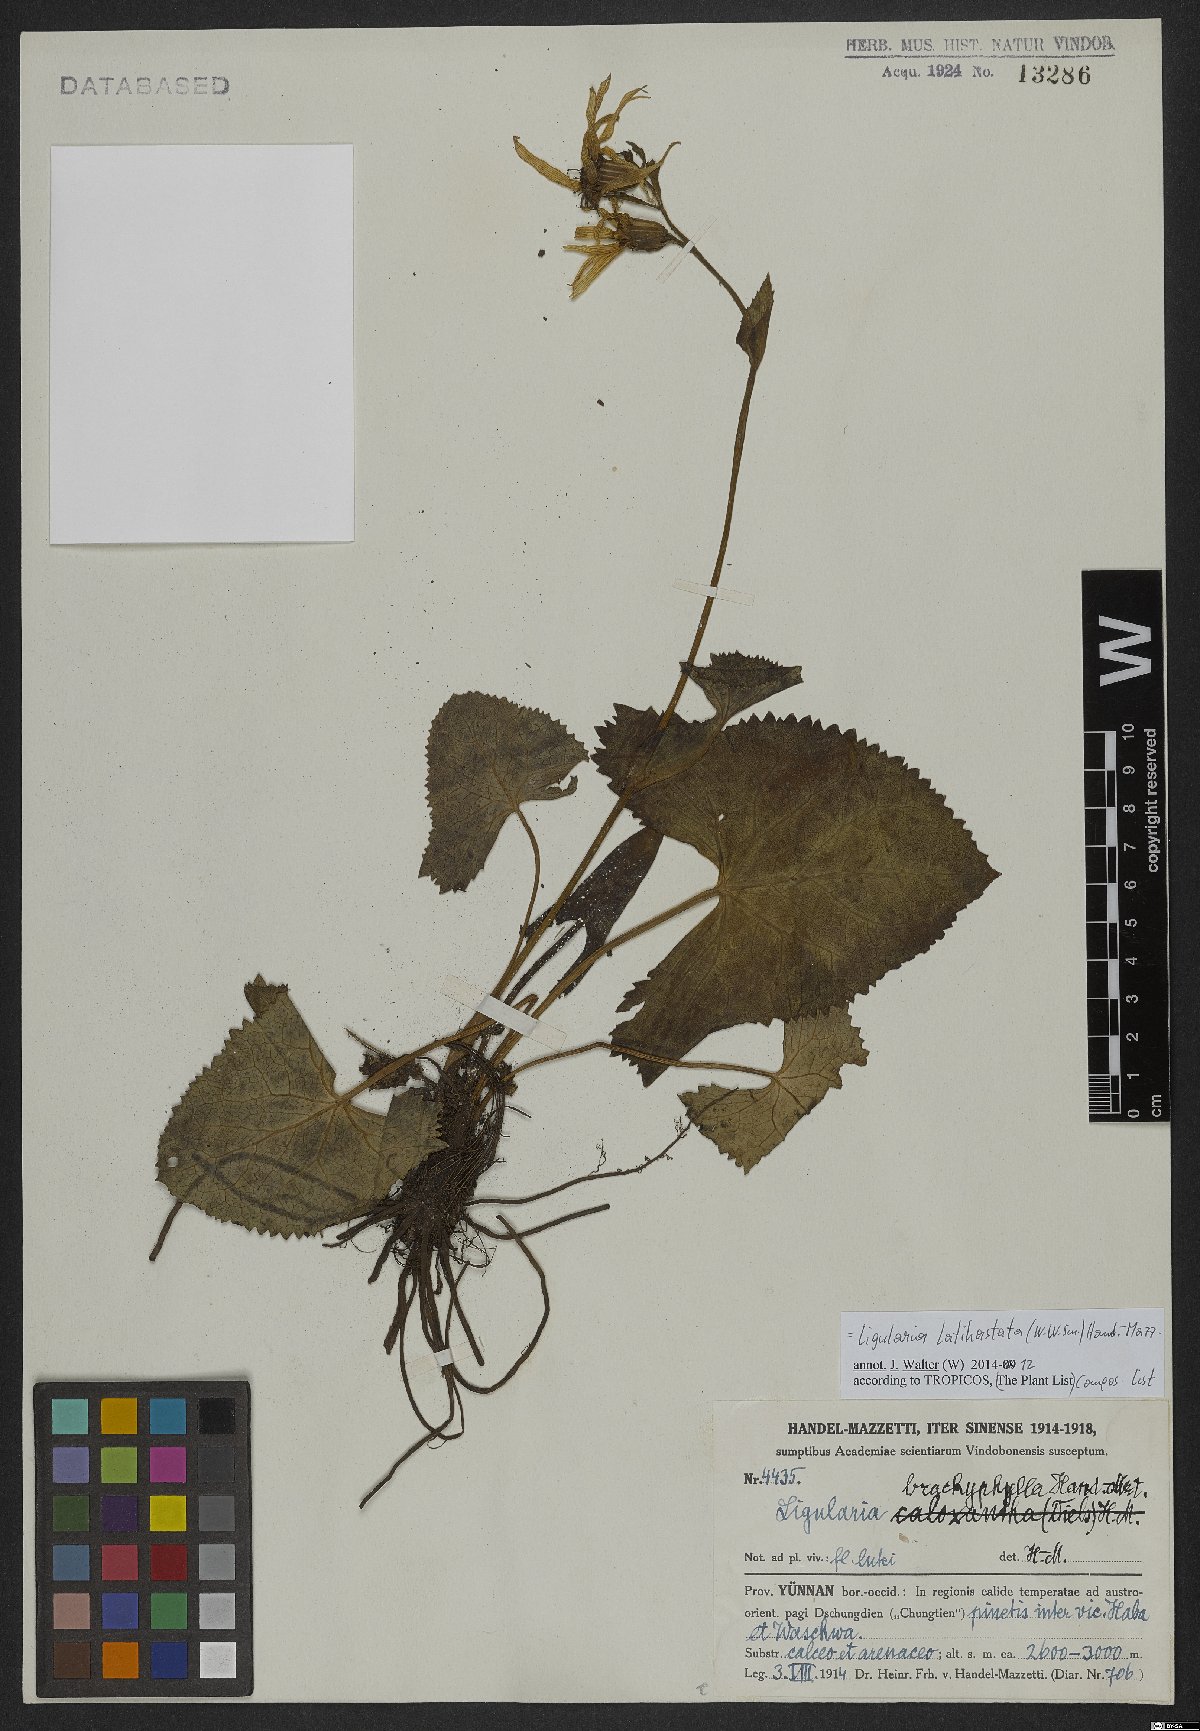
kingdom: Plantae
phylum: Tracheophyta
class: Magnoliopsida
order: Asterales
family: Asteraceae
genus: Ligularia
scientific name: Ligularia latihastata
